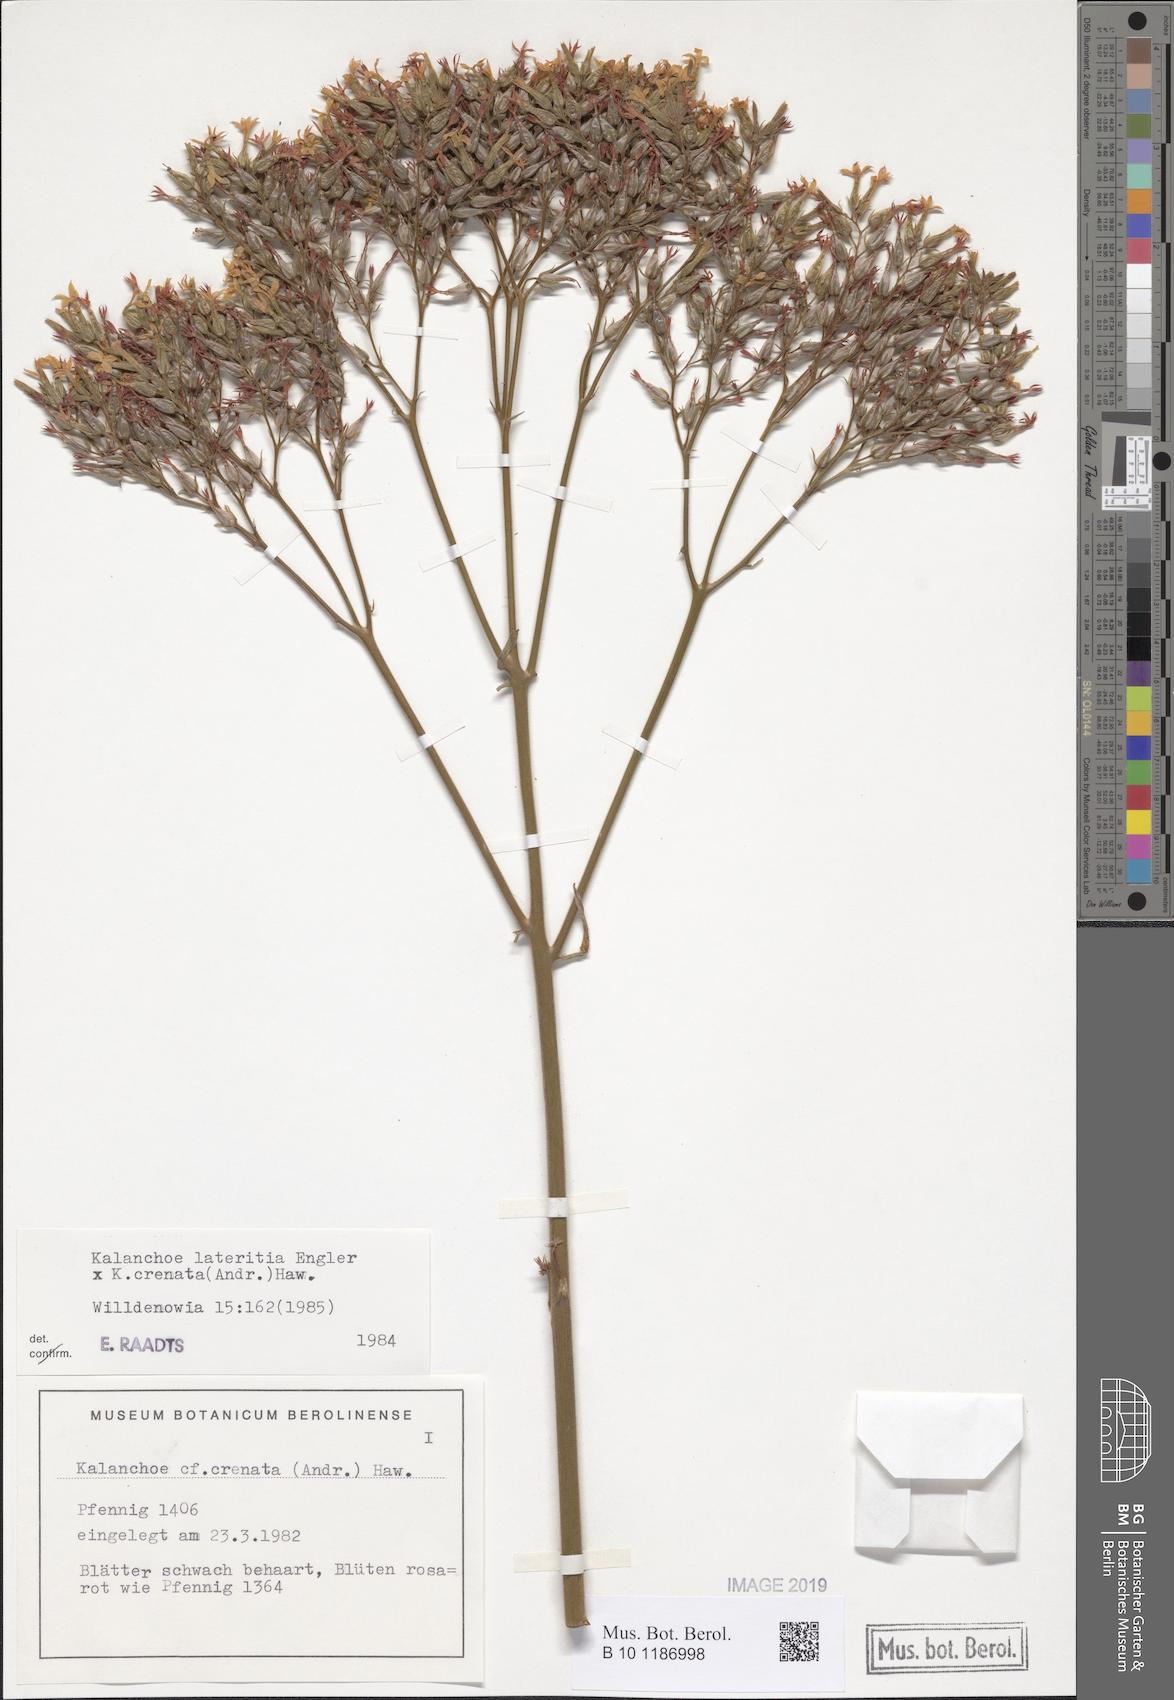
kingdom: Plantae
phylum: Tracheophyta
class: Magnoliopsida
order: Saxifragales
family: Crassulaceae
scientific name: Crassulaceae
